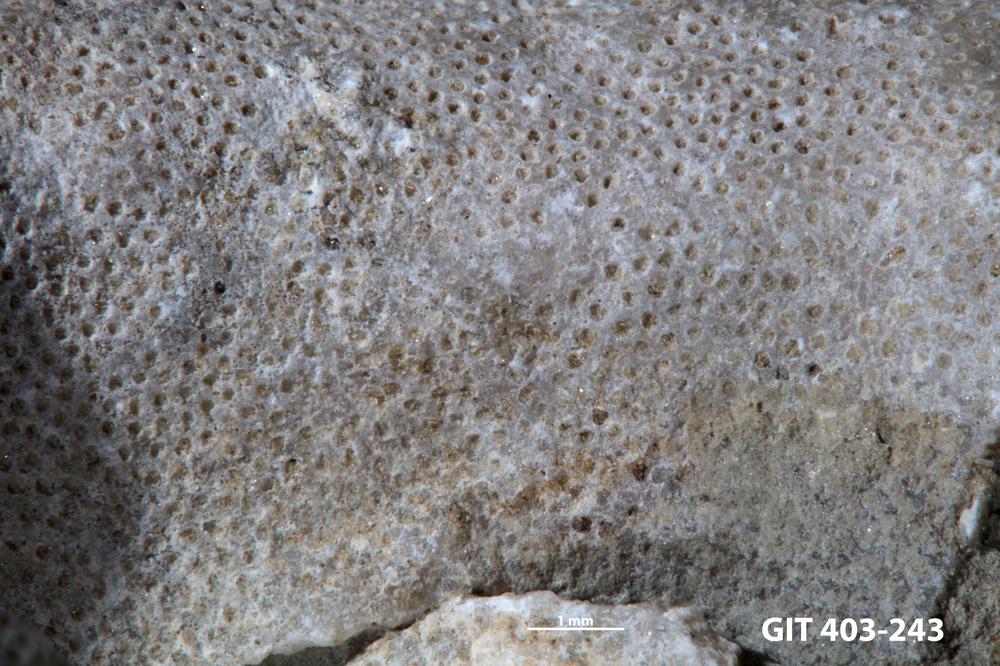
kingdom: Animalia
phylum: Bryozoa
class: Stenolaemata
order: Cystoporida
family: Fistuliporidae
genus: Fistulipora
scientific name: Fistulipora przhidolensis
